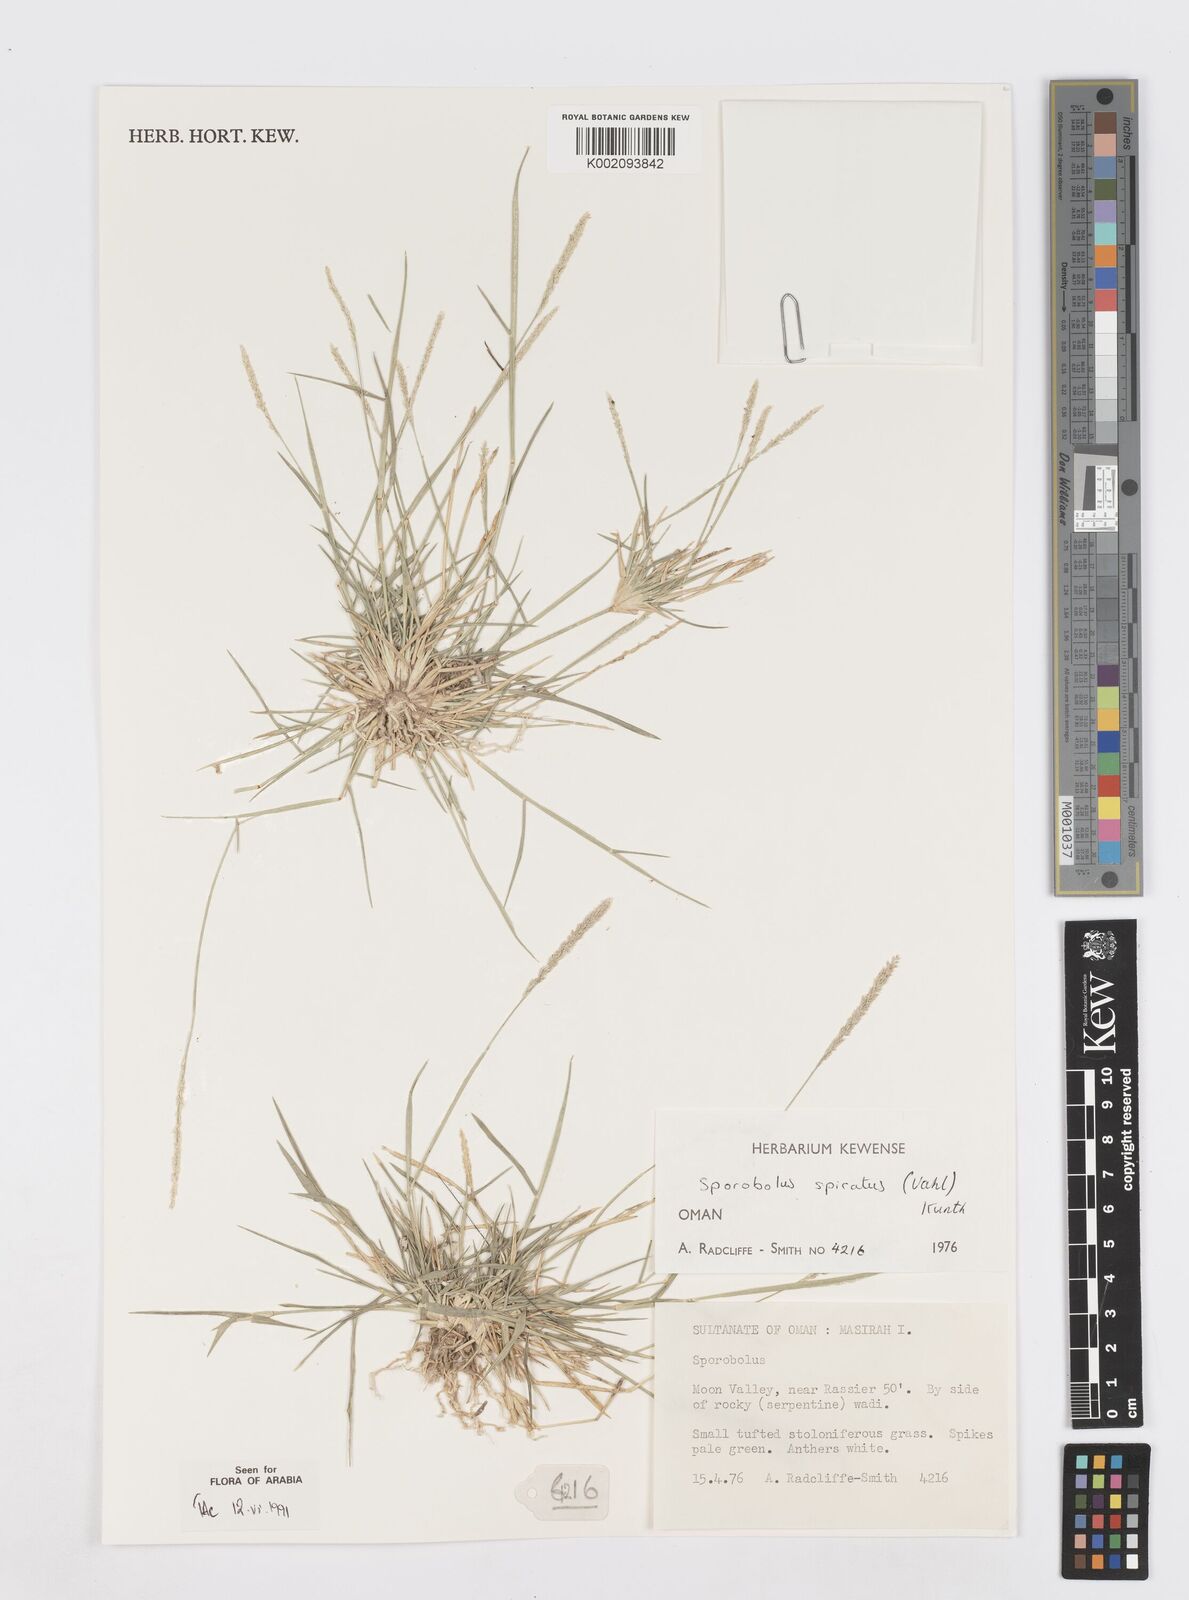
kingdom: Plantae
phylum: Tracheophyta
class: Liliopsida
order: Poales
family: Poaceae
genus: Sporobolus
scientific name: Sporobolus spicatus
